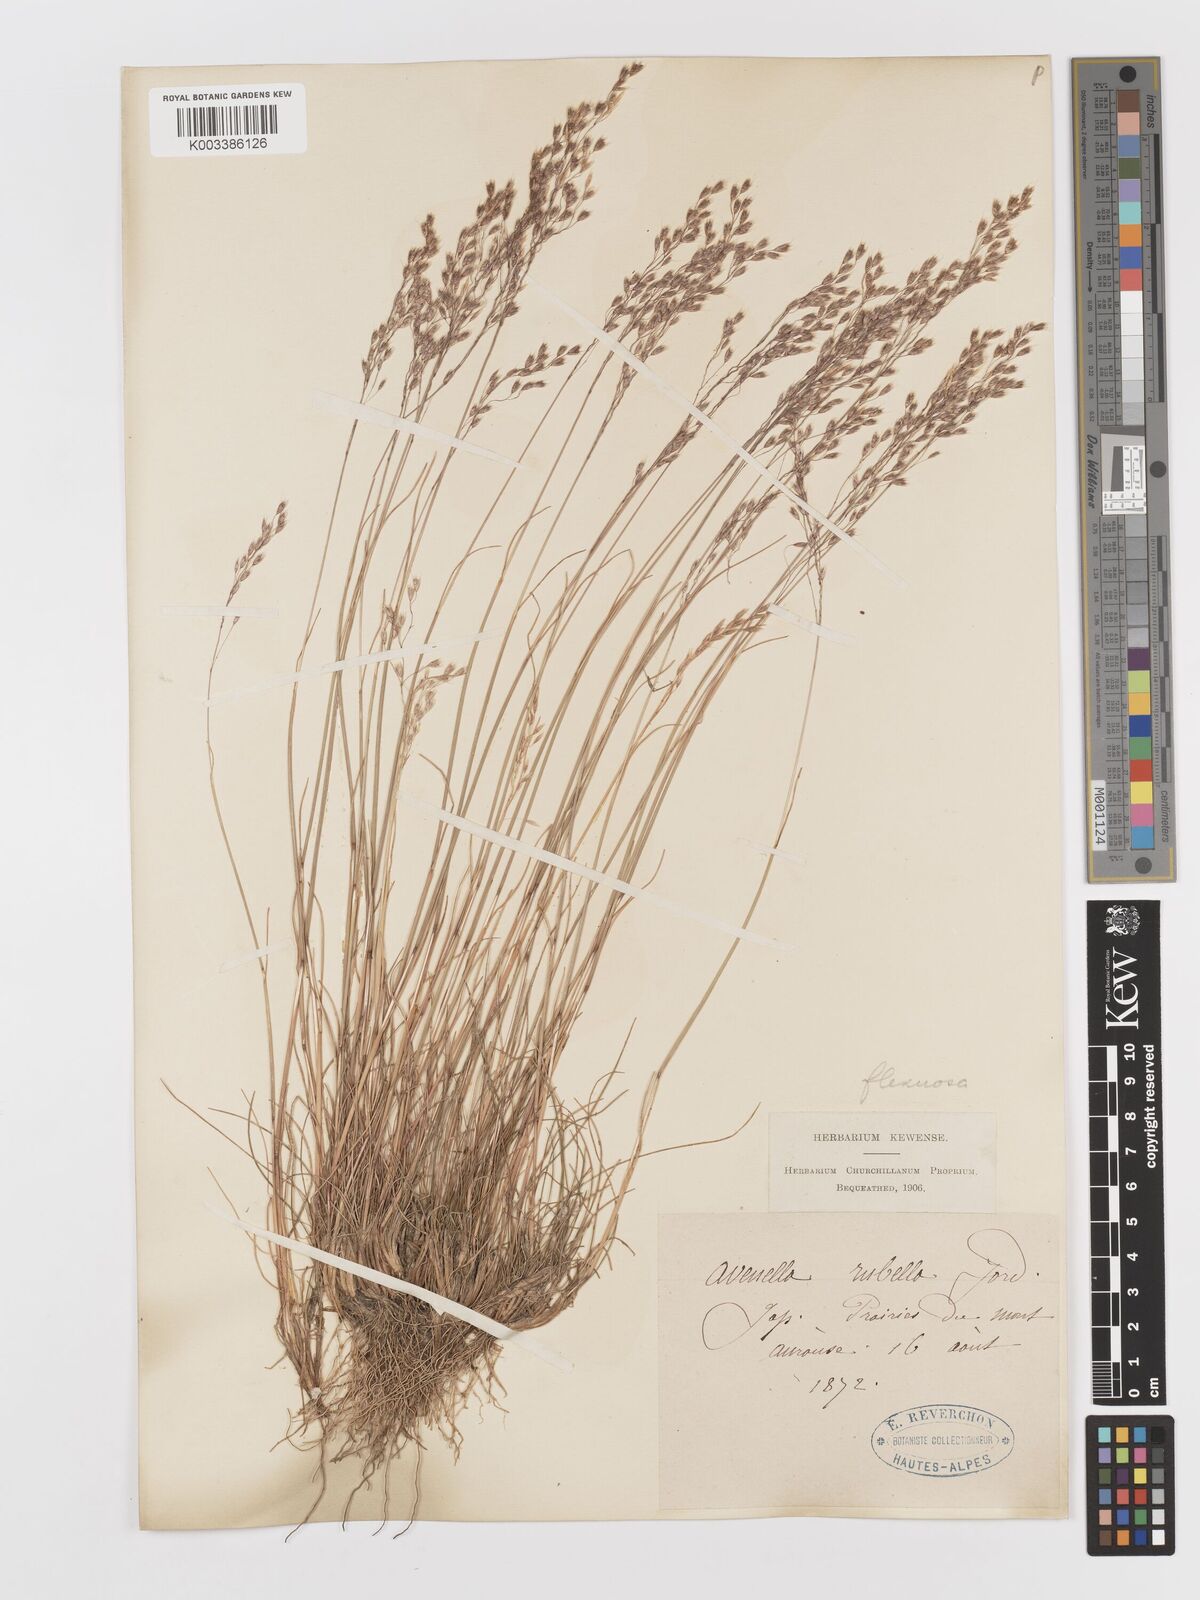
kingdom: Plantae
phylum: Tracheophyta
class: Liliopsida
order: Poales
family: Poaceae
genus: Avenella
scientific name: Avenella flexuosa
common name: Wavy hairgrass
